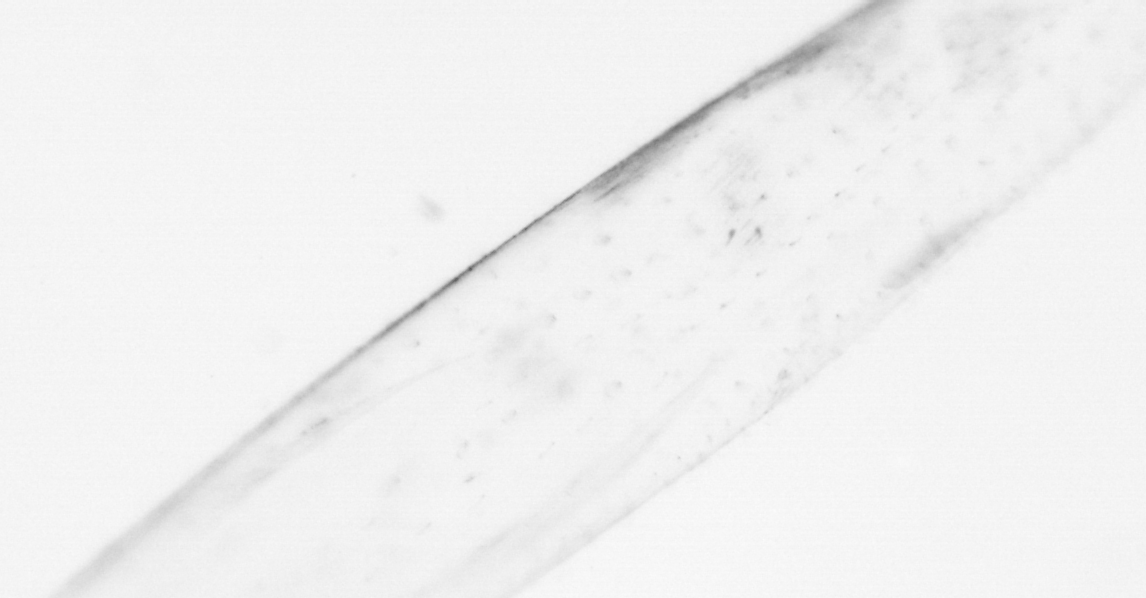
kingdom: Animalia
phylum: Chaetognatha
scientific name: Chaetognatha
